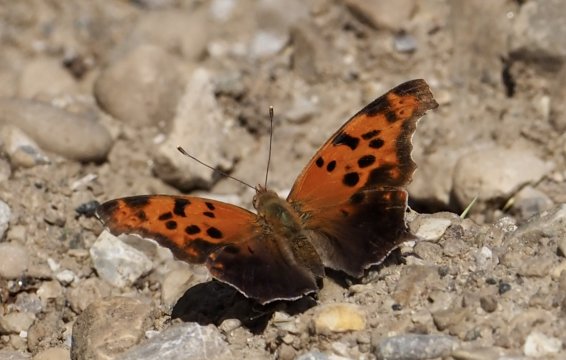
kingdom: Animalia
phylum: Arthropoda
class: Insecta
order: Lepidoptera
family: Nymphalidae
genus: Polygonia
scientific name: Polygonia interrogationis
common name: Question Mark
